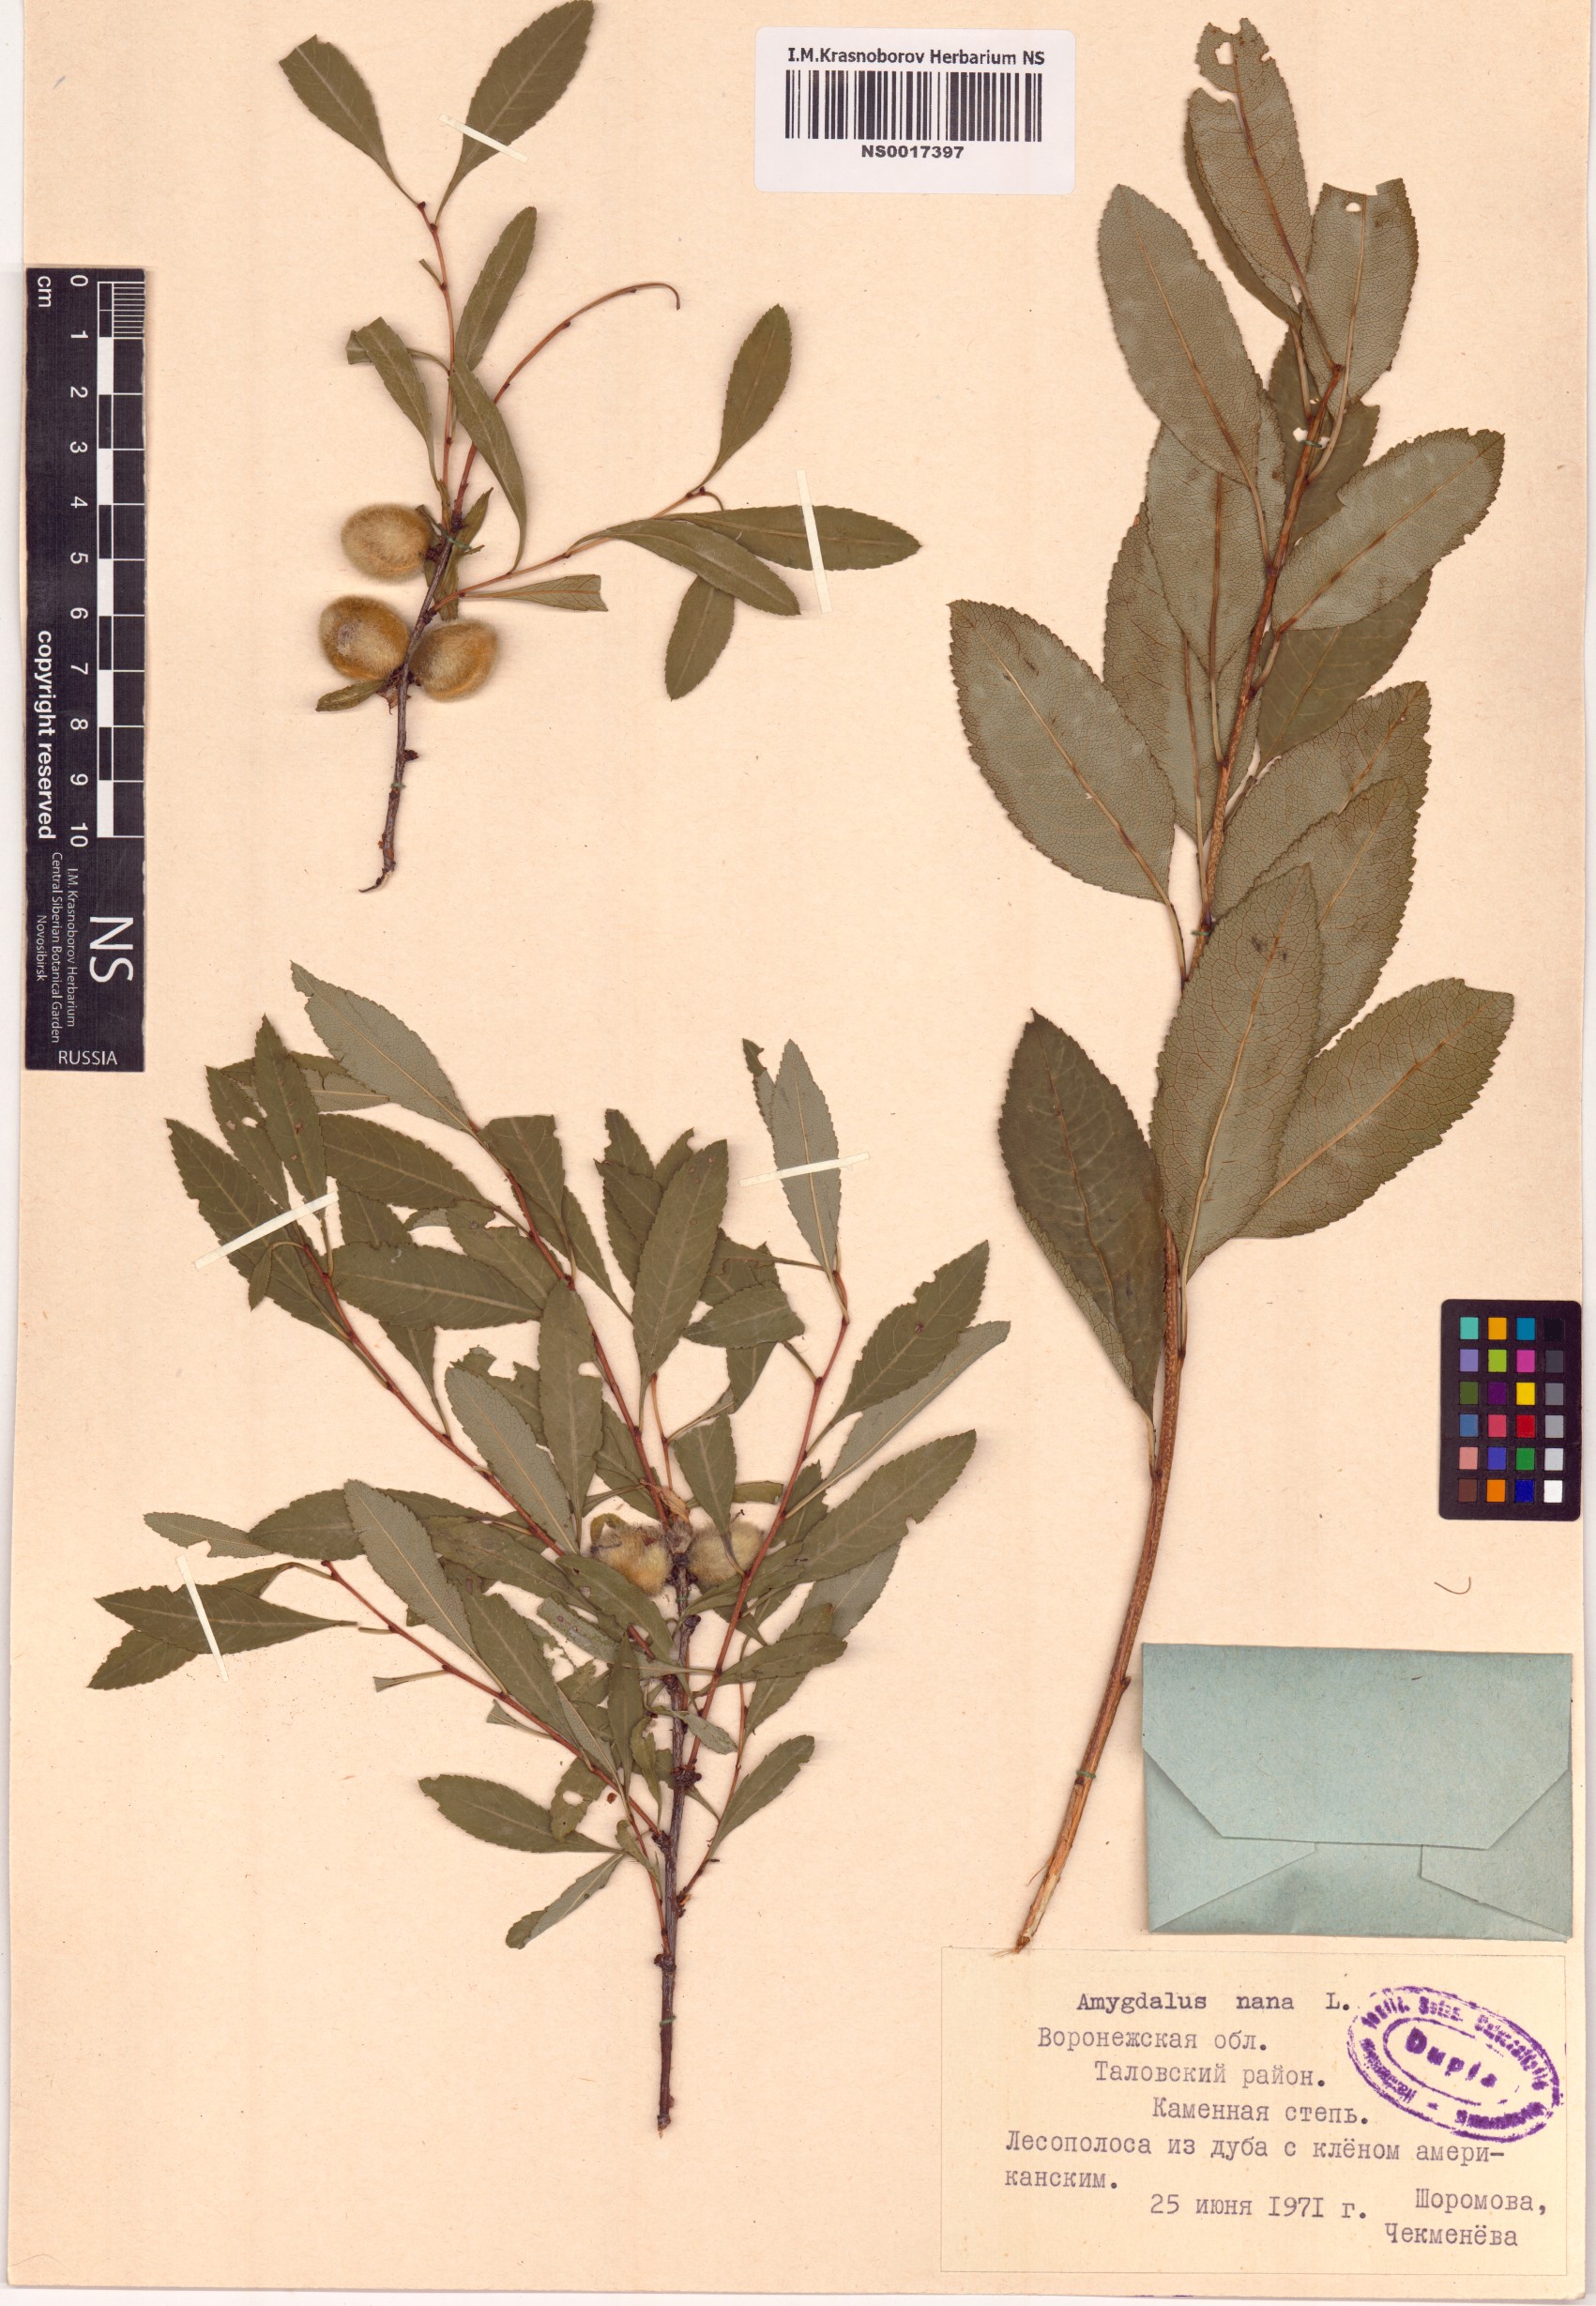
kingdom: Plantae
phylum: Tracheophyta
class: Magnoliopsida
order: Rosales
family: Rosaceae
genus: Prunus
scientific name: Prunus tenella
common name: Dwarf russian almond
